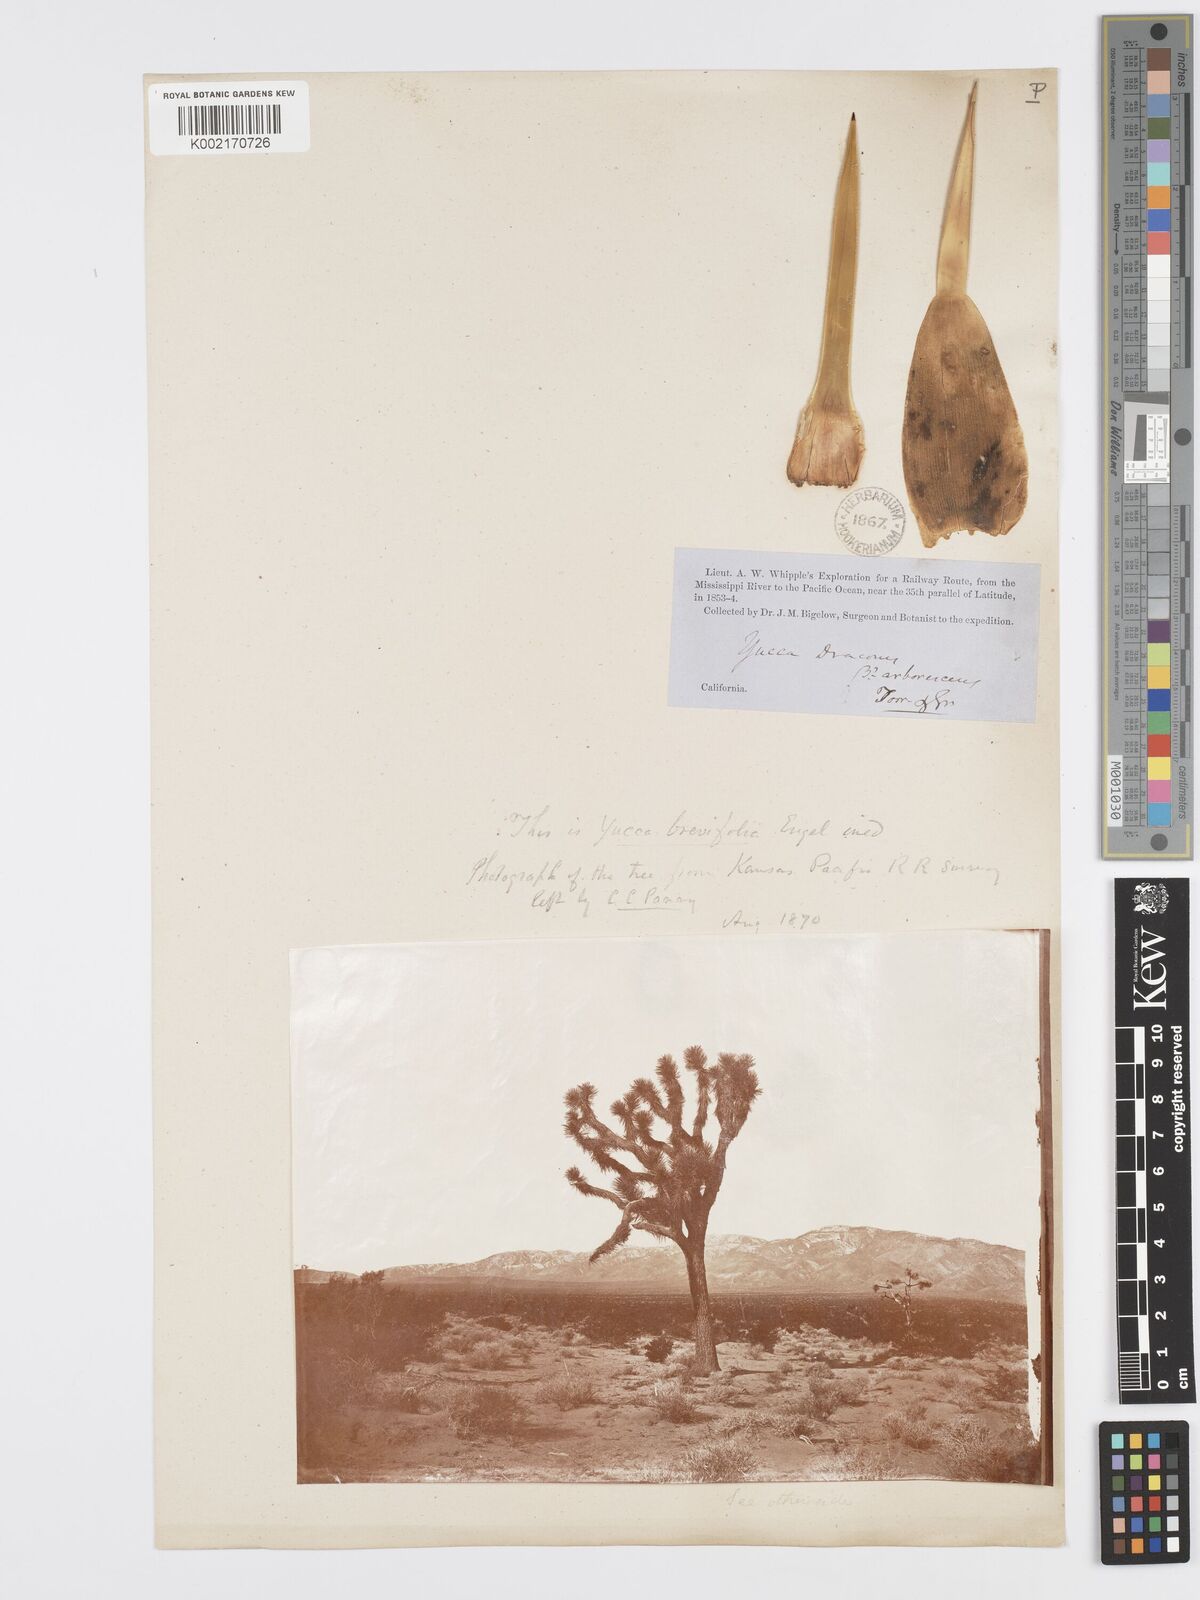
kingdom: Plantae
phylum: Tracheophyta
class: Liliopsida
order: Asparagales
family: Asparagaceae
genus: Yucca
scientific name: Yucca brevifolia
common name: Joshua tree
